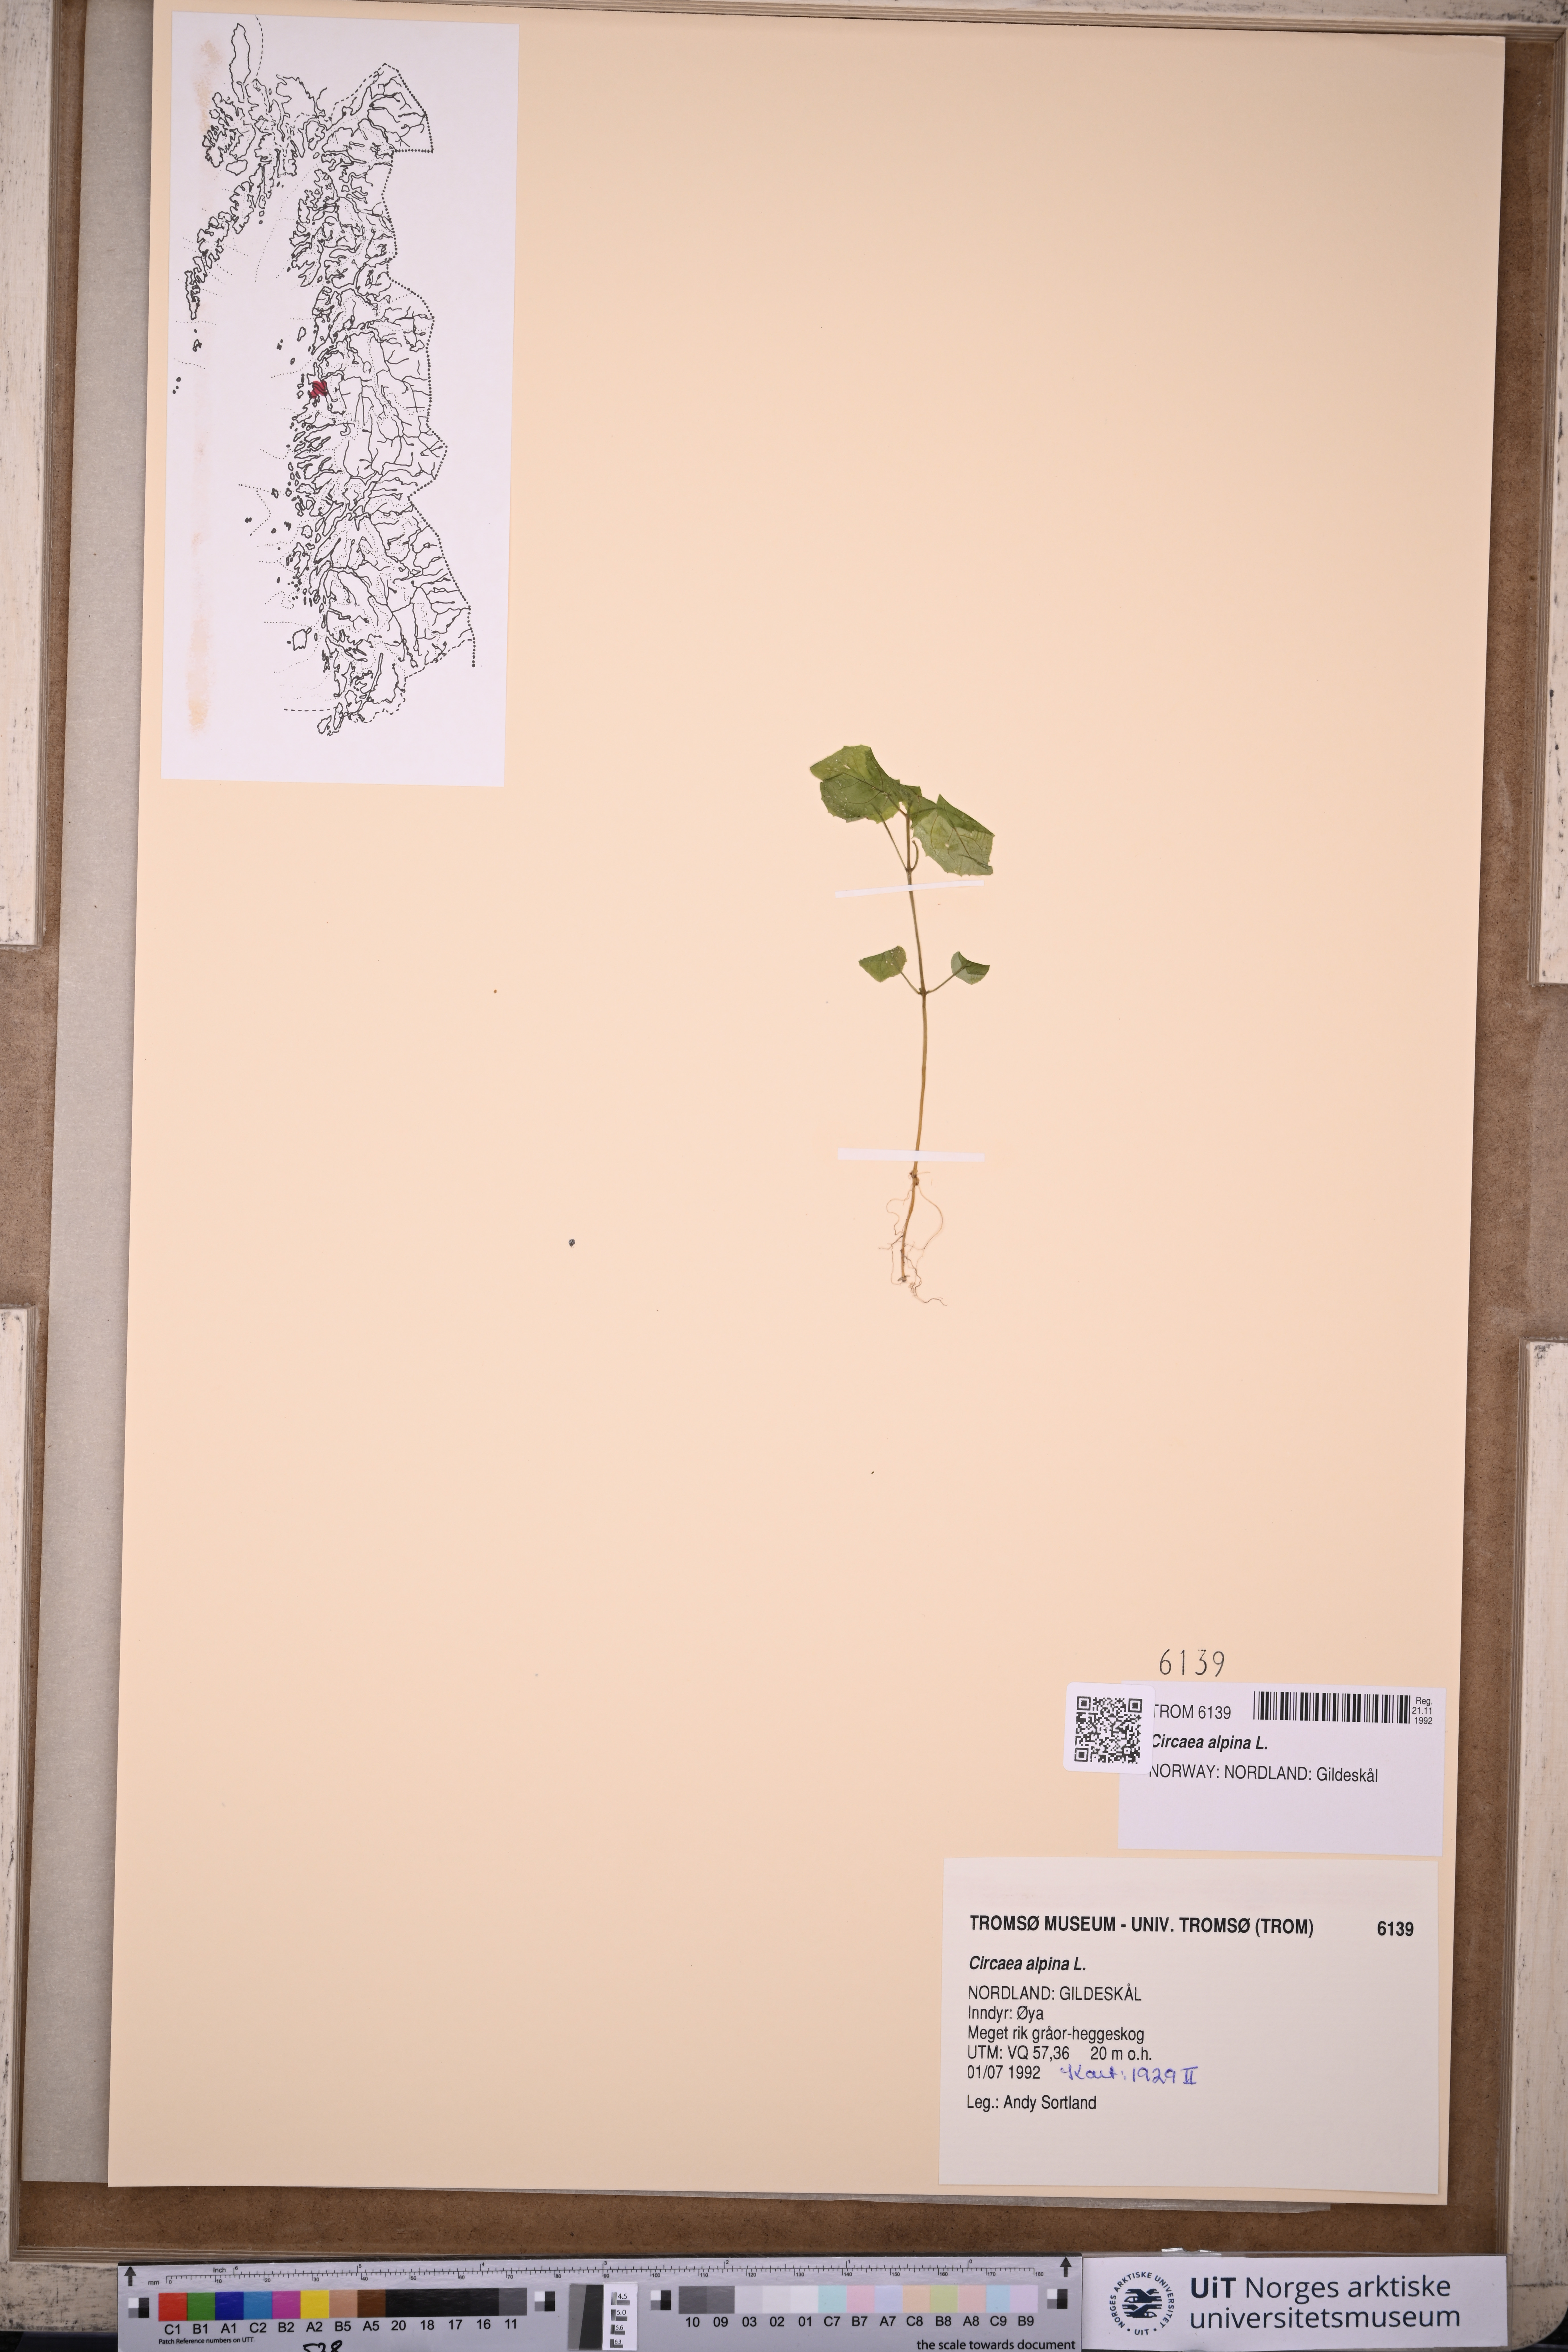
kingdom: Plantae
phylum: Tracheophyta
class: Magnoliopsida
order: Myrtales
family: Onagraceae
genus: Circaea
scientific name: Circaea alpina
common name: Alpine enchanter's-nightshade
